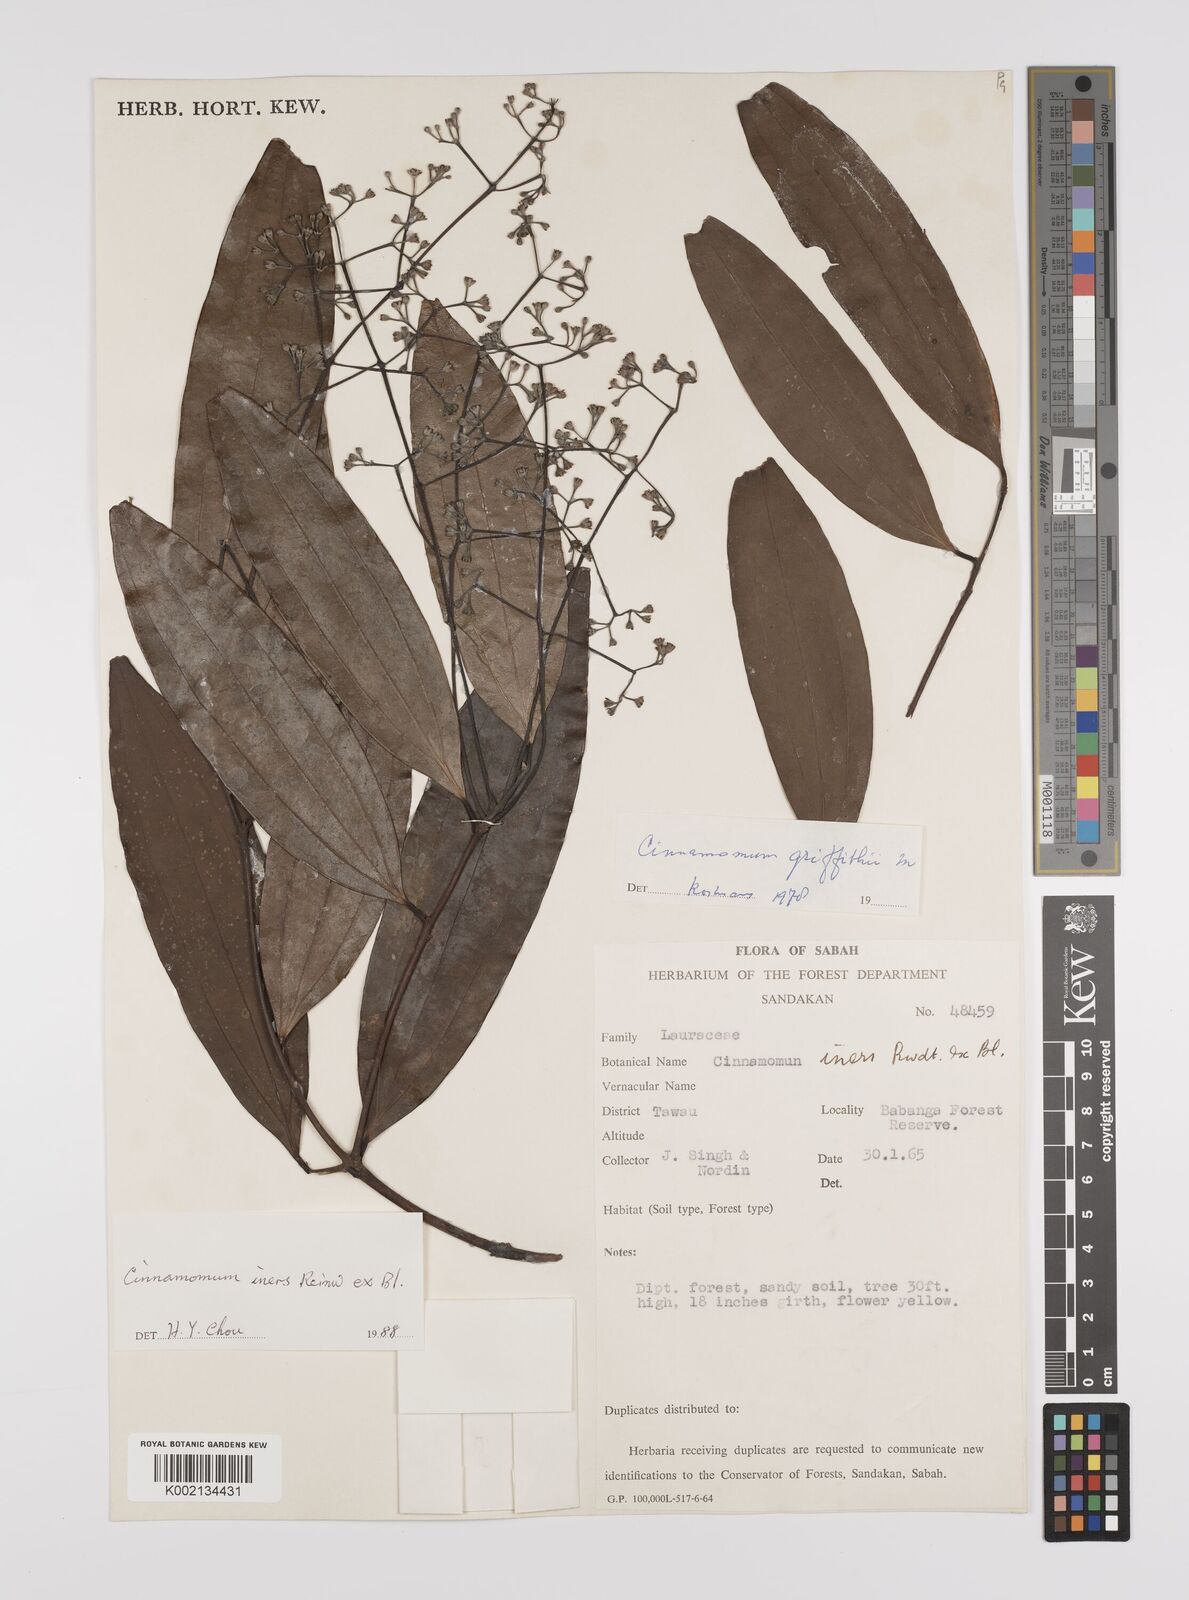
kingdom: Plantae
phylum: Tracheophyta
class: Magnoliopsida
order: Laurales
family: Lauraceae
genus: Cinnamomum
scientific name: Cinnamomum iners
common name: Wild cinnamon
